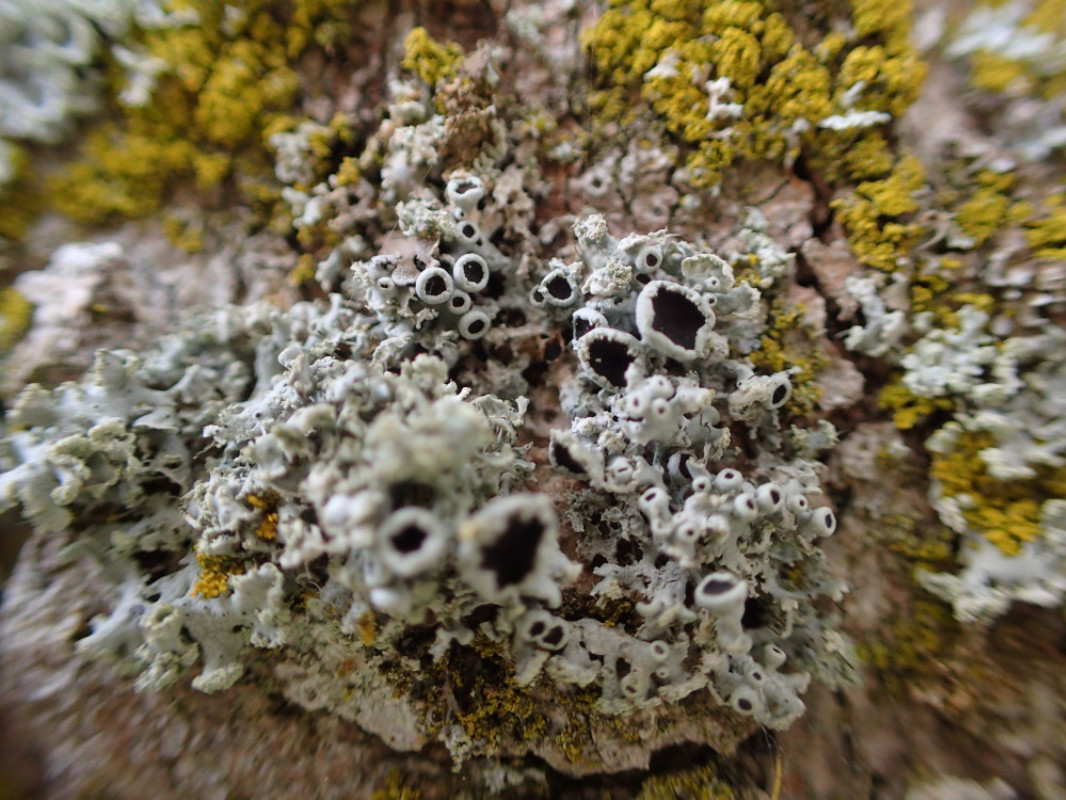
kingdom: Fungi
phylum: Ascomycota
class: Lecanoromycetes
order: Caliciales
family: Physciaceae
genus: Physcia
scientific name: Physcia tenella
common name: spæd rosetlav
